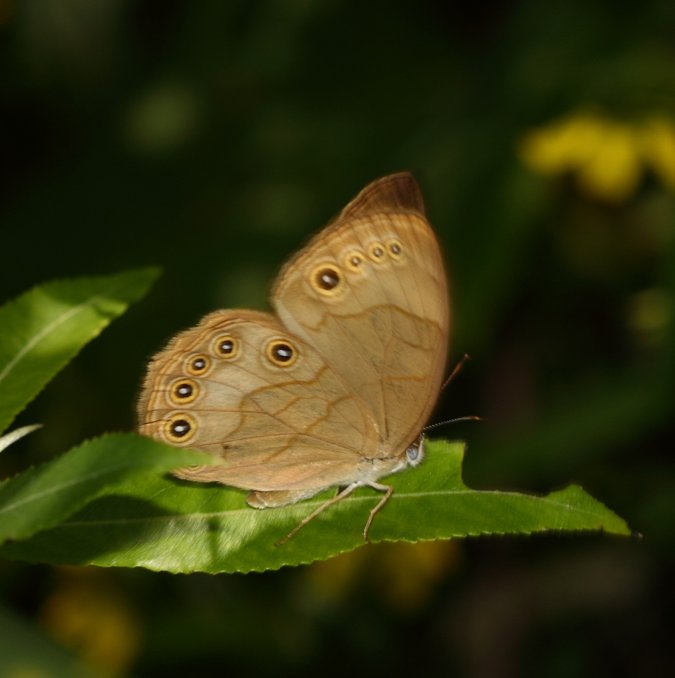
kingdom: Animalia
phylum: Arthropoda
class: Insecta
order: Lepidoptera
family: Nymphalidae
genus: Lethe
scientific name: Lethe eurydice
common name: Appalachian Eyed Brown
